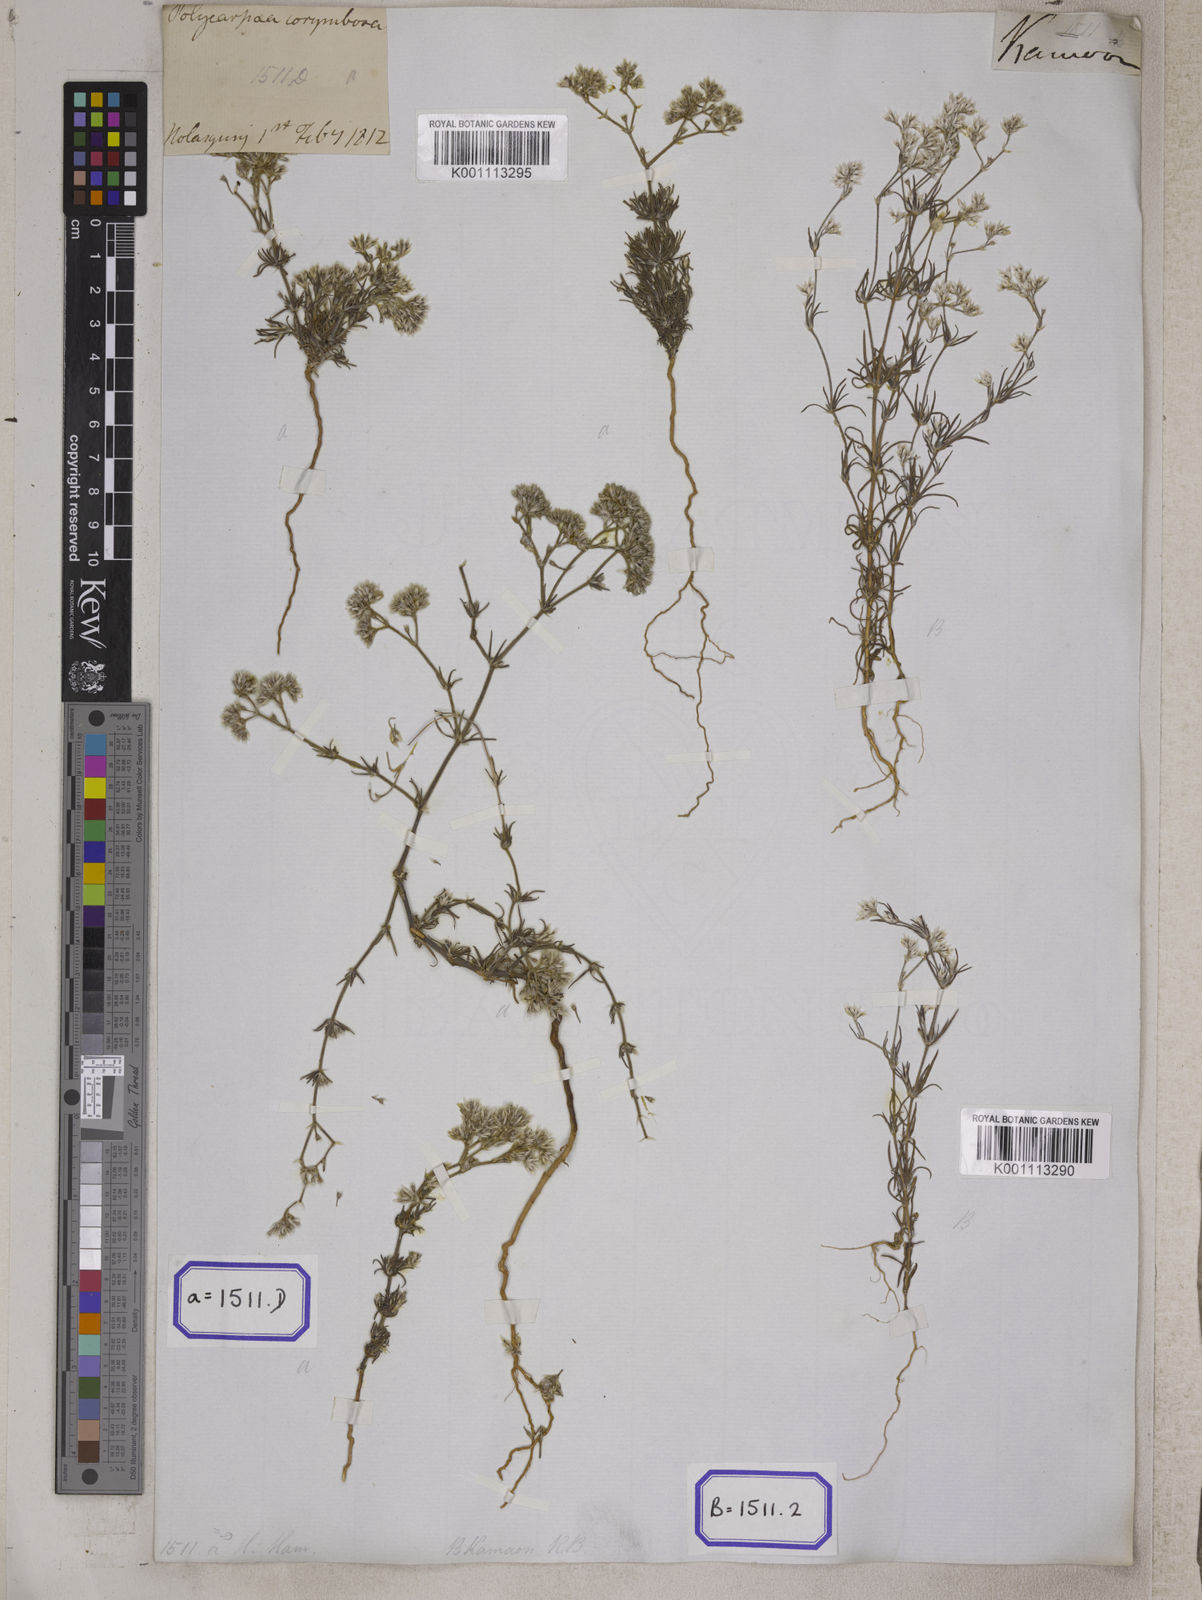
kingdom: Plantae
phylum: Tracheophyta
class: Magnoliopsida
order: Caryophyllales
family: Caryophyllaceae
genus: Polycarpaea
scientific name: Polycarpaea corymbosa
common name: Oldman's cap
